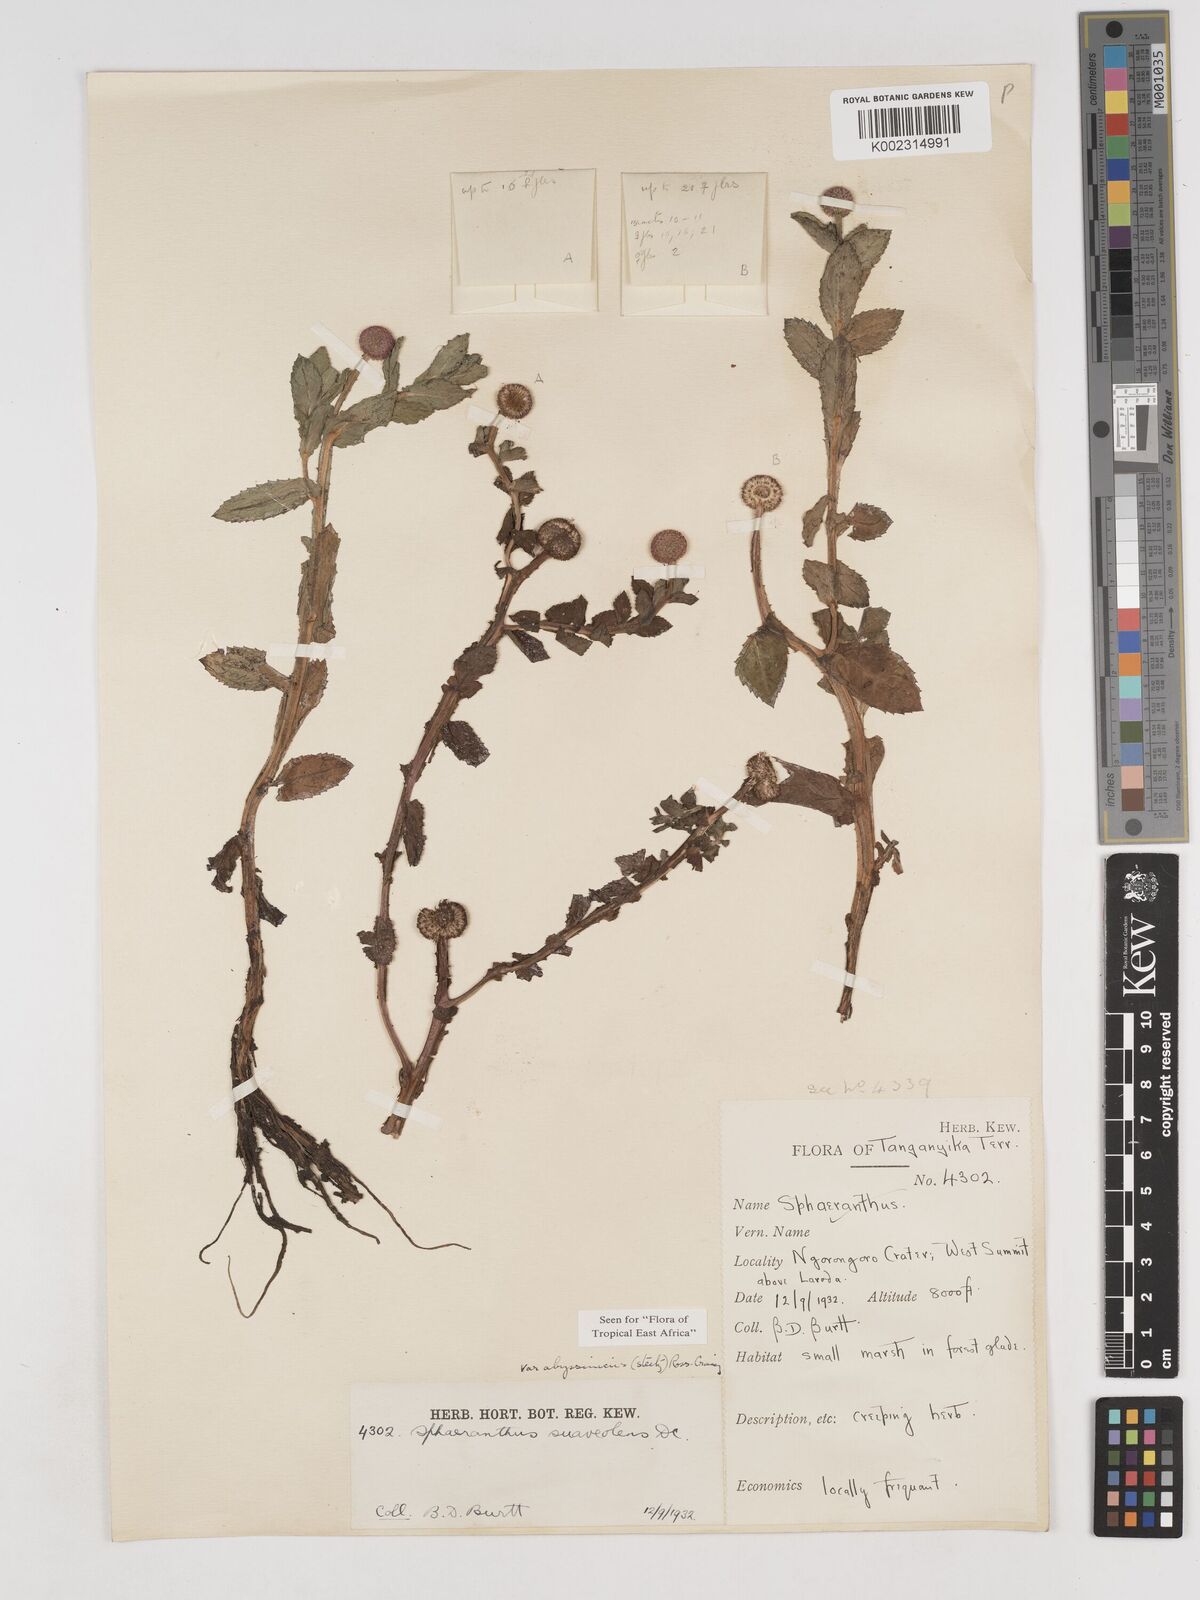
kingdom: Plantae
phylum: Tracheophyta
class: Magnoliopsida
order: Asterales
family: Asteraceae
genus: Sphaeranthus
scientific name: Sphaeranthus suaveolens
